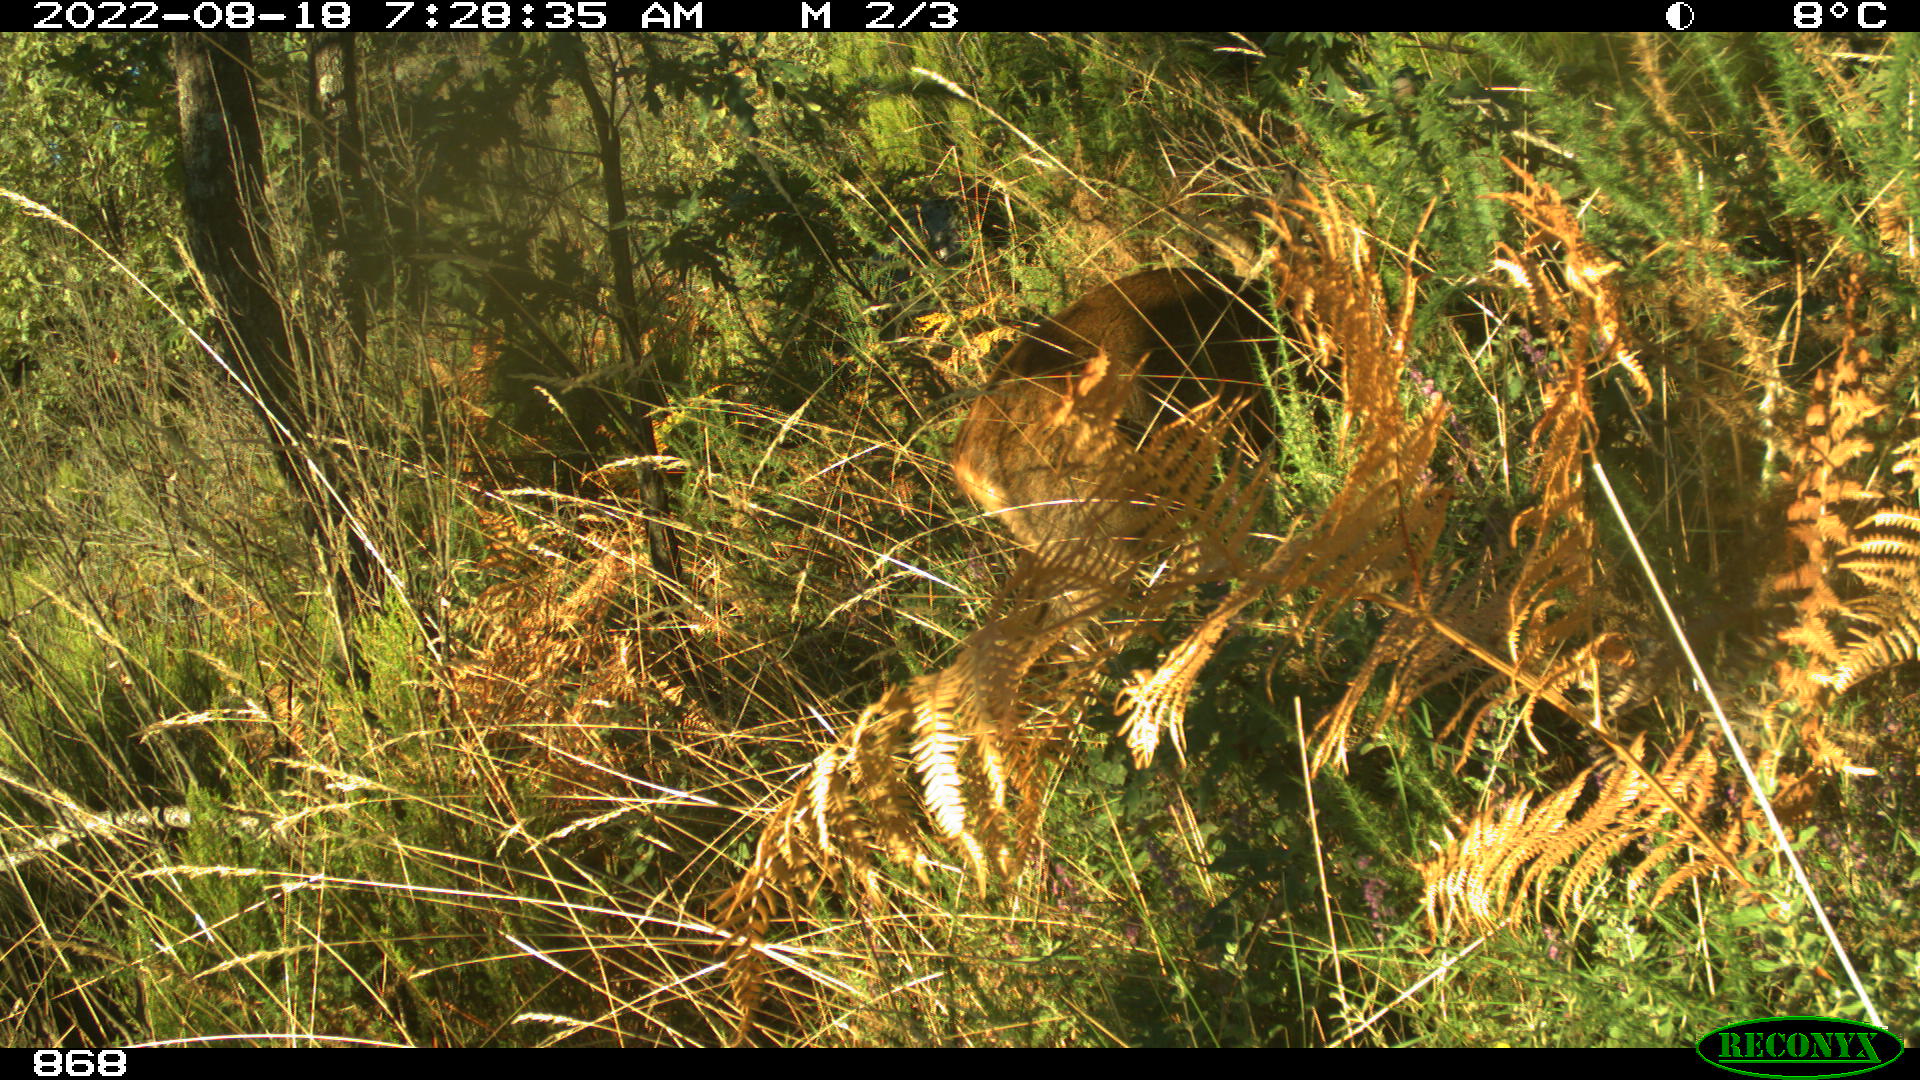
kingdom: Animalia
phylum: Chordata
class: Mammalia
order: Artiodactyla
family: Cervidae
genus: Capreolus
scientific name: Capreolus capreolus
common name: Western roe deer
